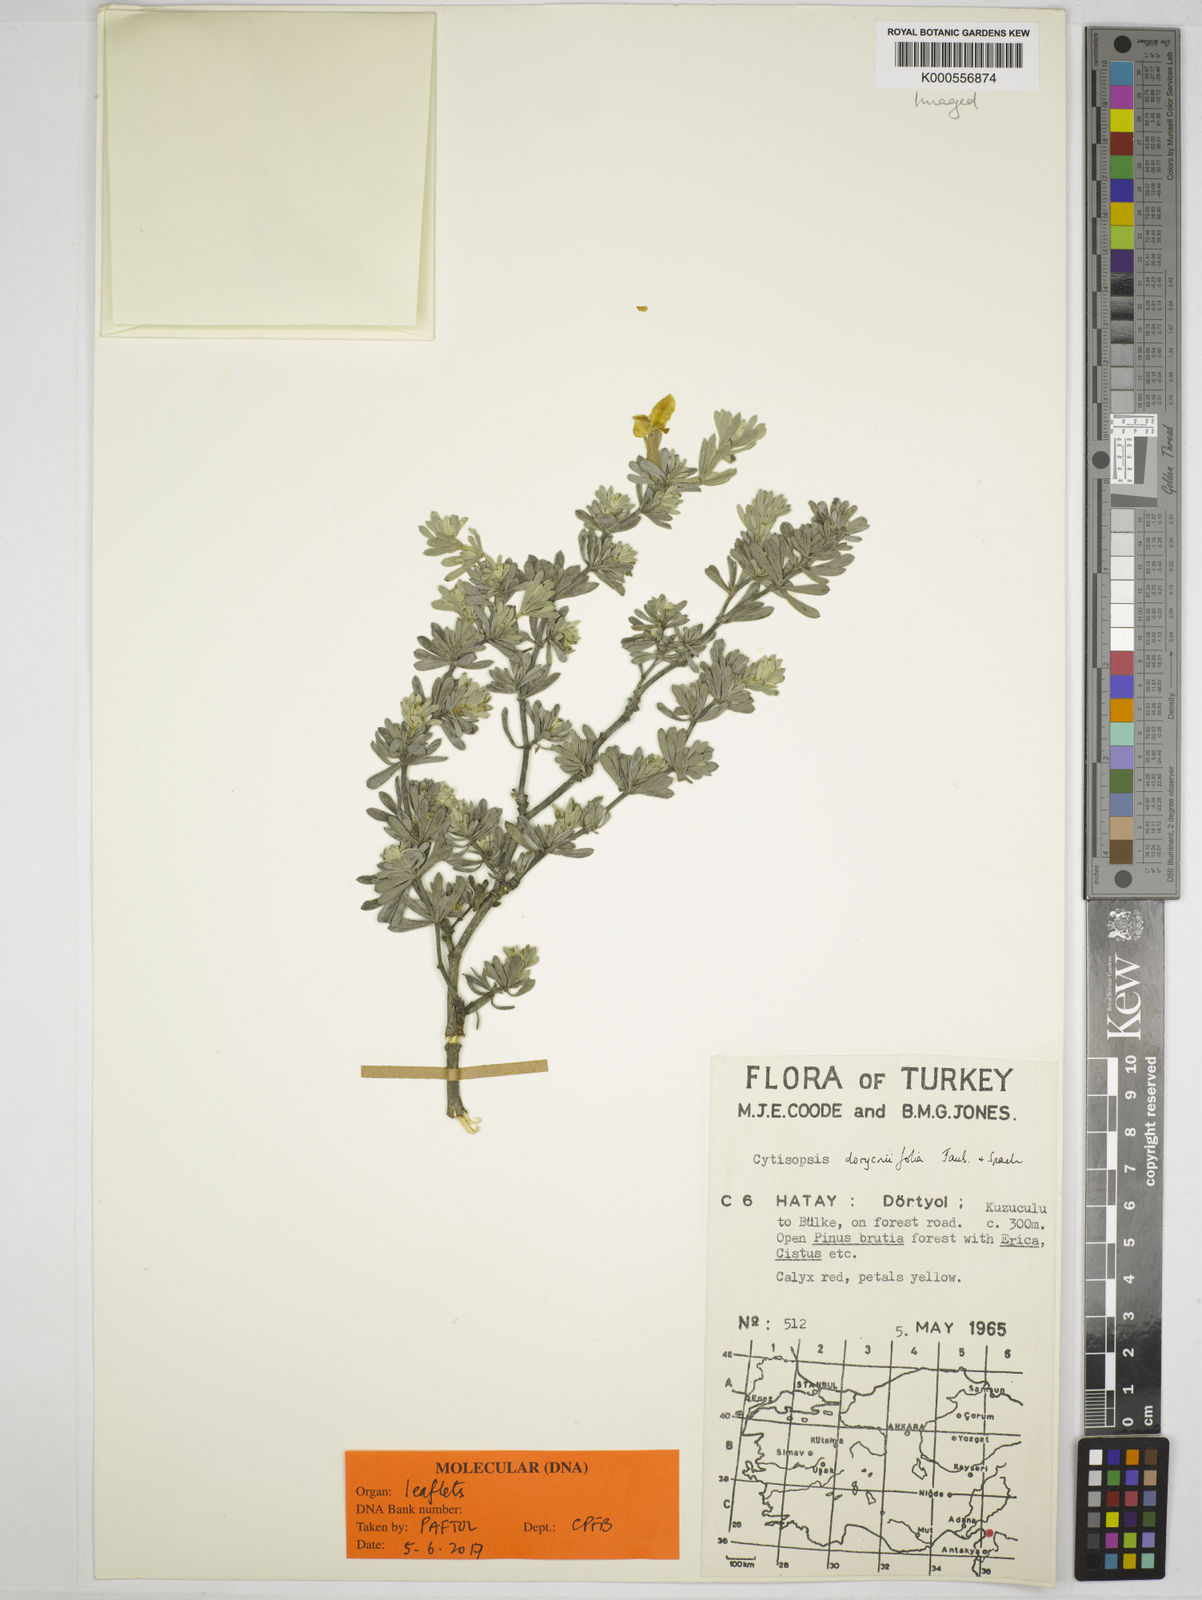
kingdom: Plantae
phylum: Tracheophyta
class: Magnoliopsida
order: Fabales
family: Fabaceae
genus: Cytisopsis
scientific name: Cytisopsis pseudocytisus
